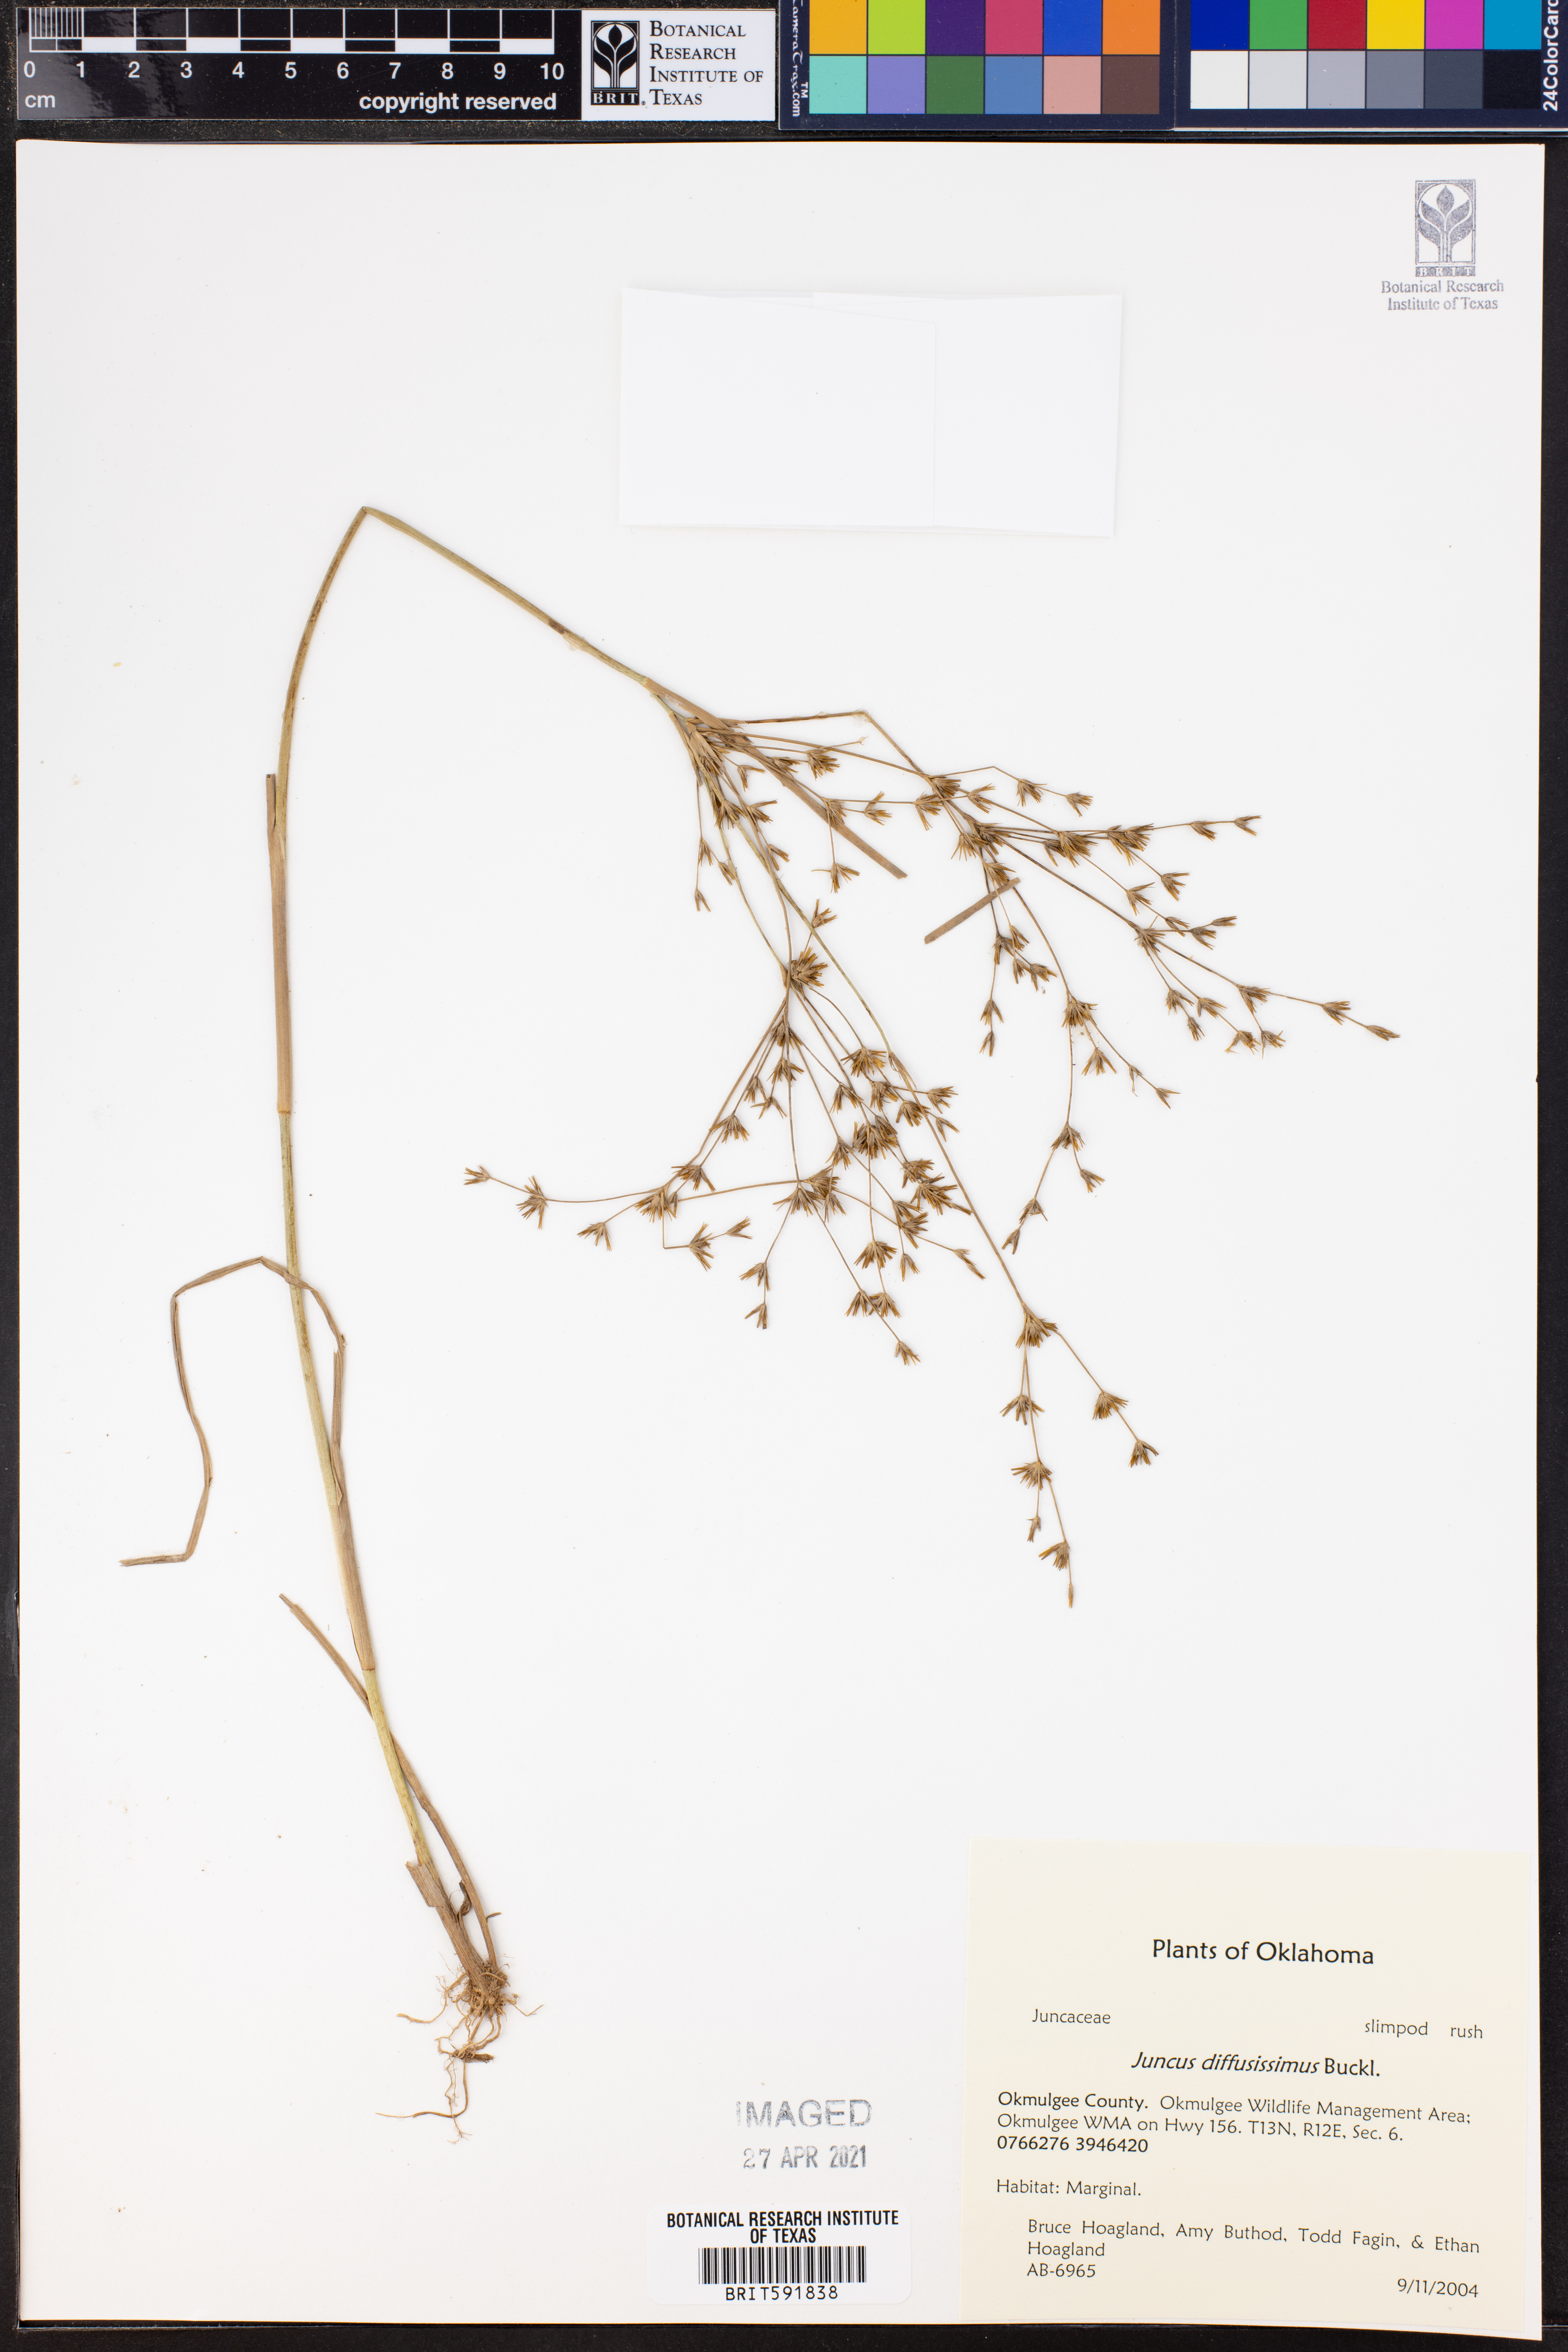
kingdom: Plantae
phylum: Tracheophyta
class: Liliopsida
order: Poales
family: Juncaceae
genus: Juncus
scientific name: Juncus diffusissimus
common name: Slimpod rush
